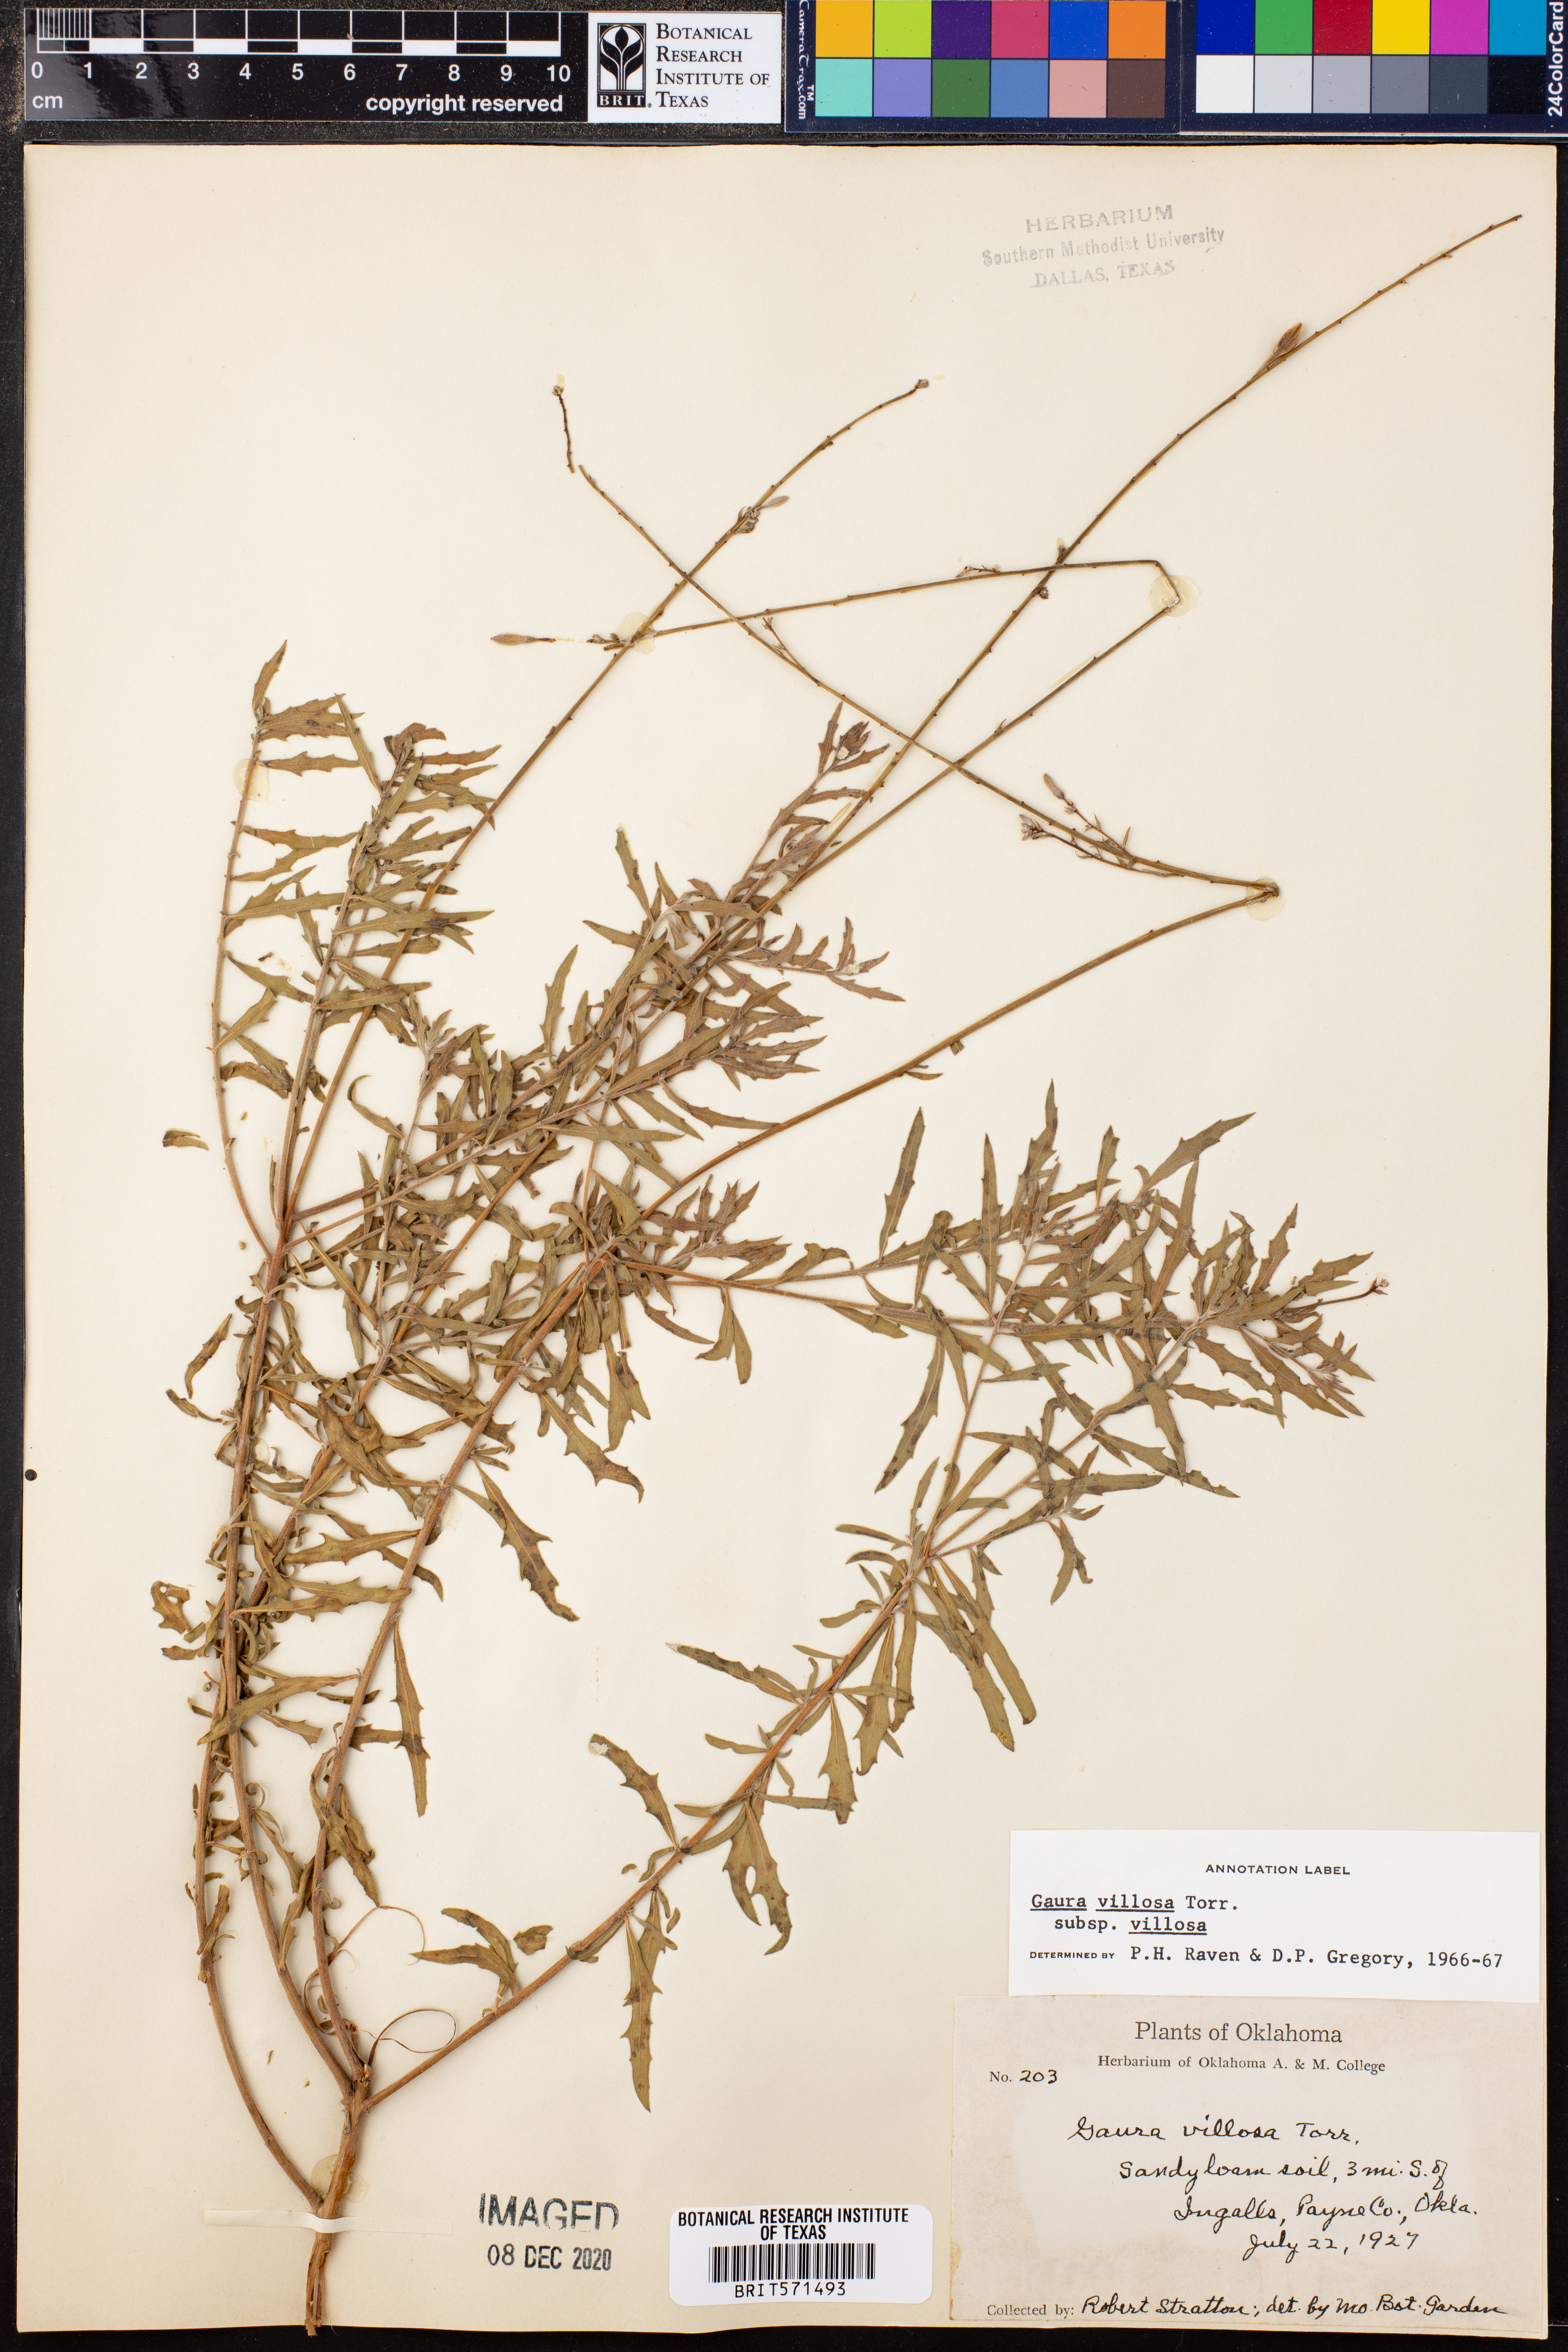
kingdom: Plantae
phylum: Tracheophyta
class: Magnoliopsida
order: Myrtales
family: Onagraceae
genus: Oenothera
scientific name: Oenothera cinerea
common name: Woolly beeblossom
